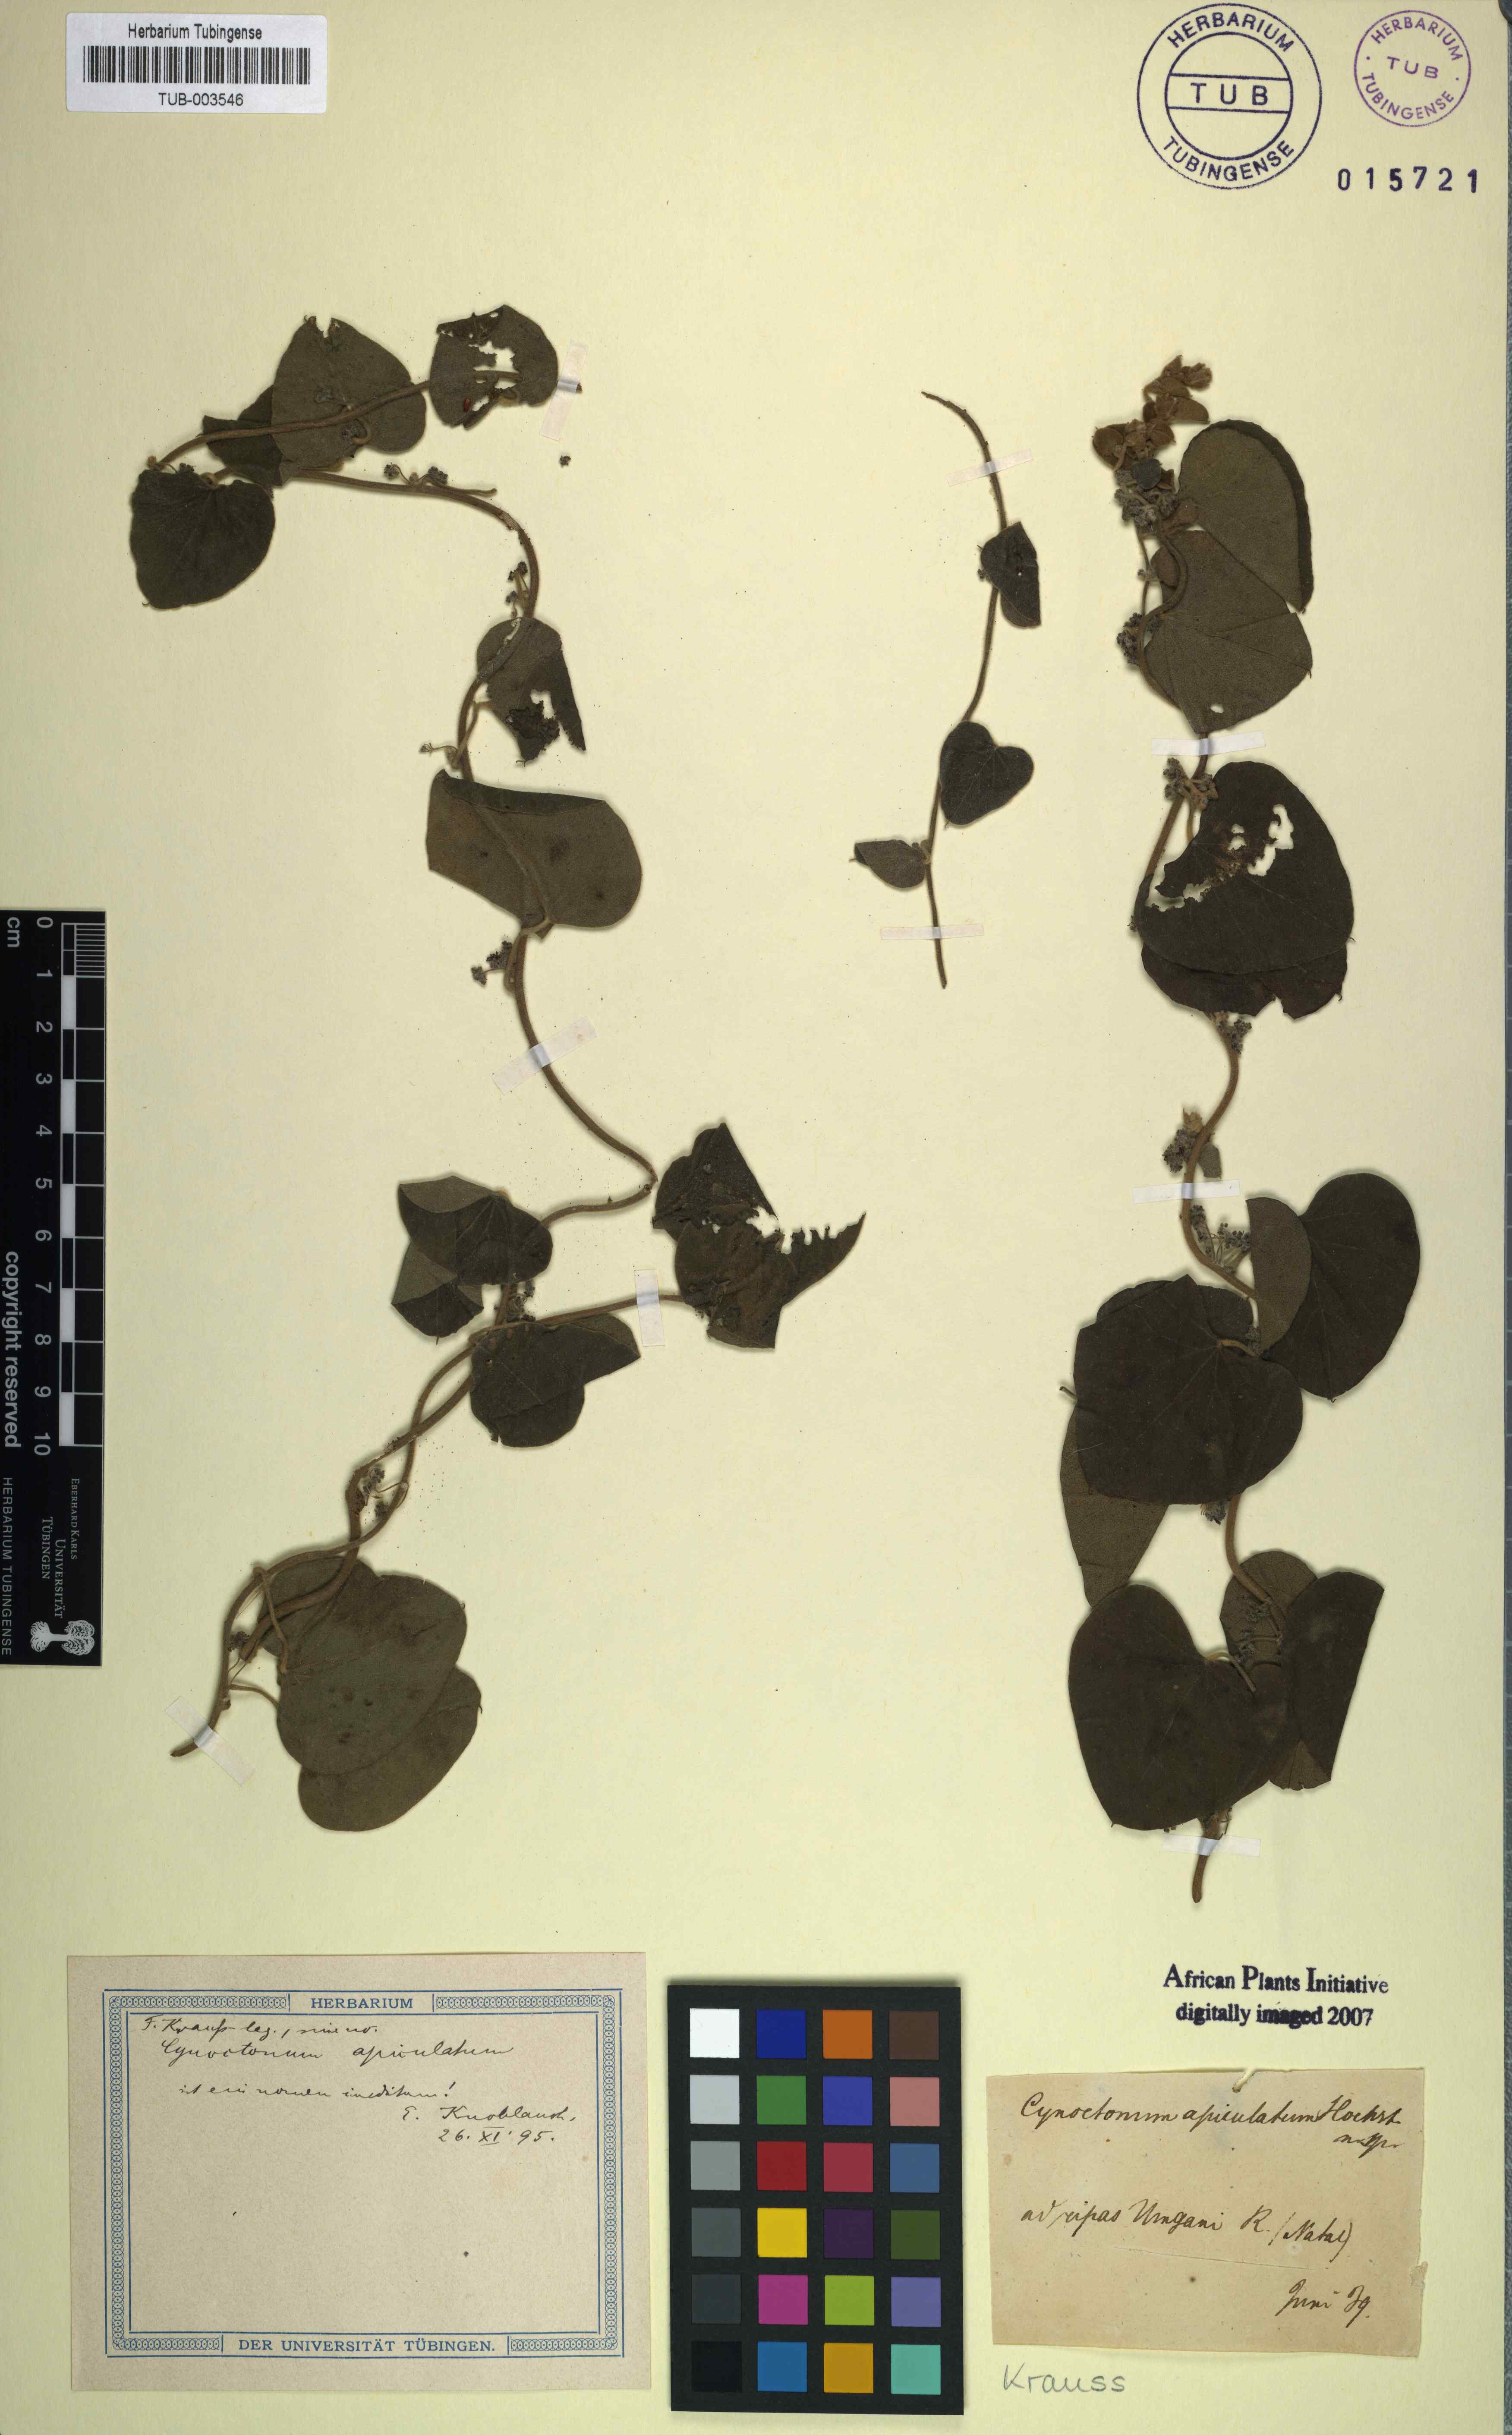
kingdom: Plantae
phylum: Tracheophyta
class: Magnoliopsida
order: Gentianales
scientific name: Gentianales
